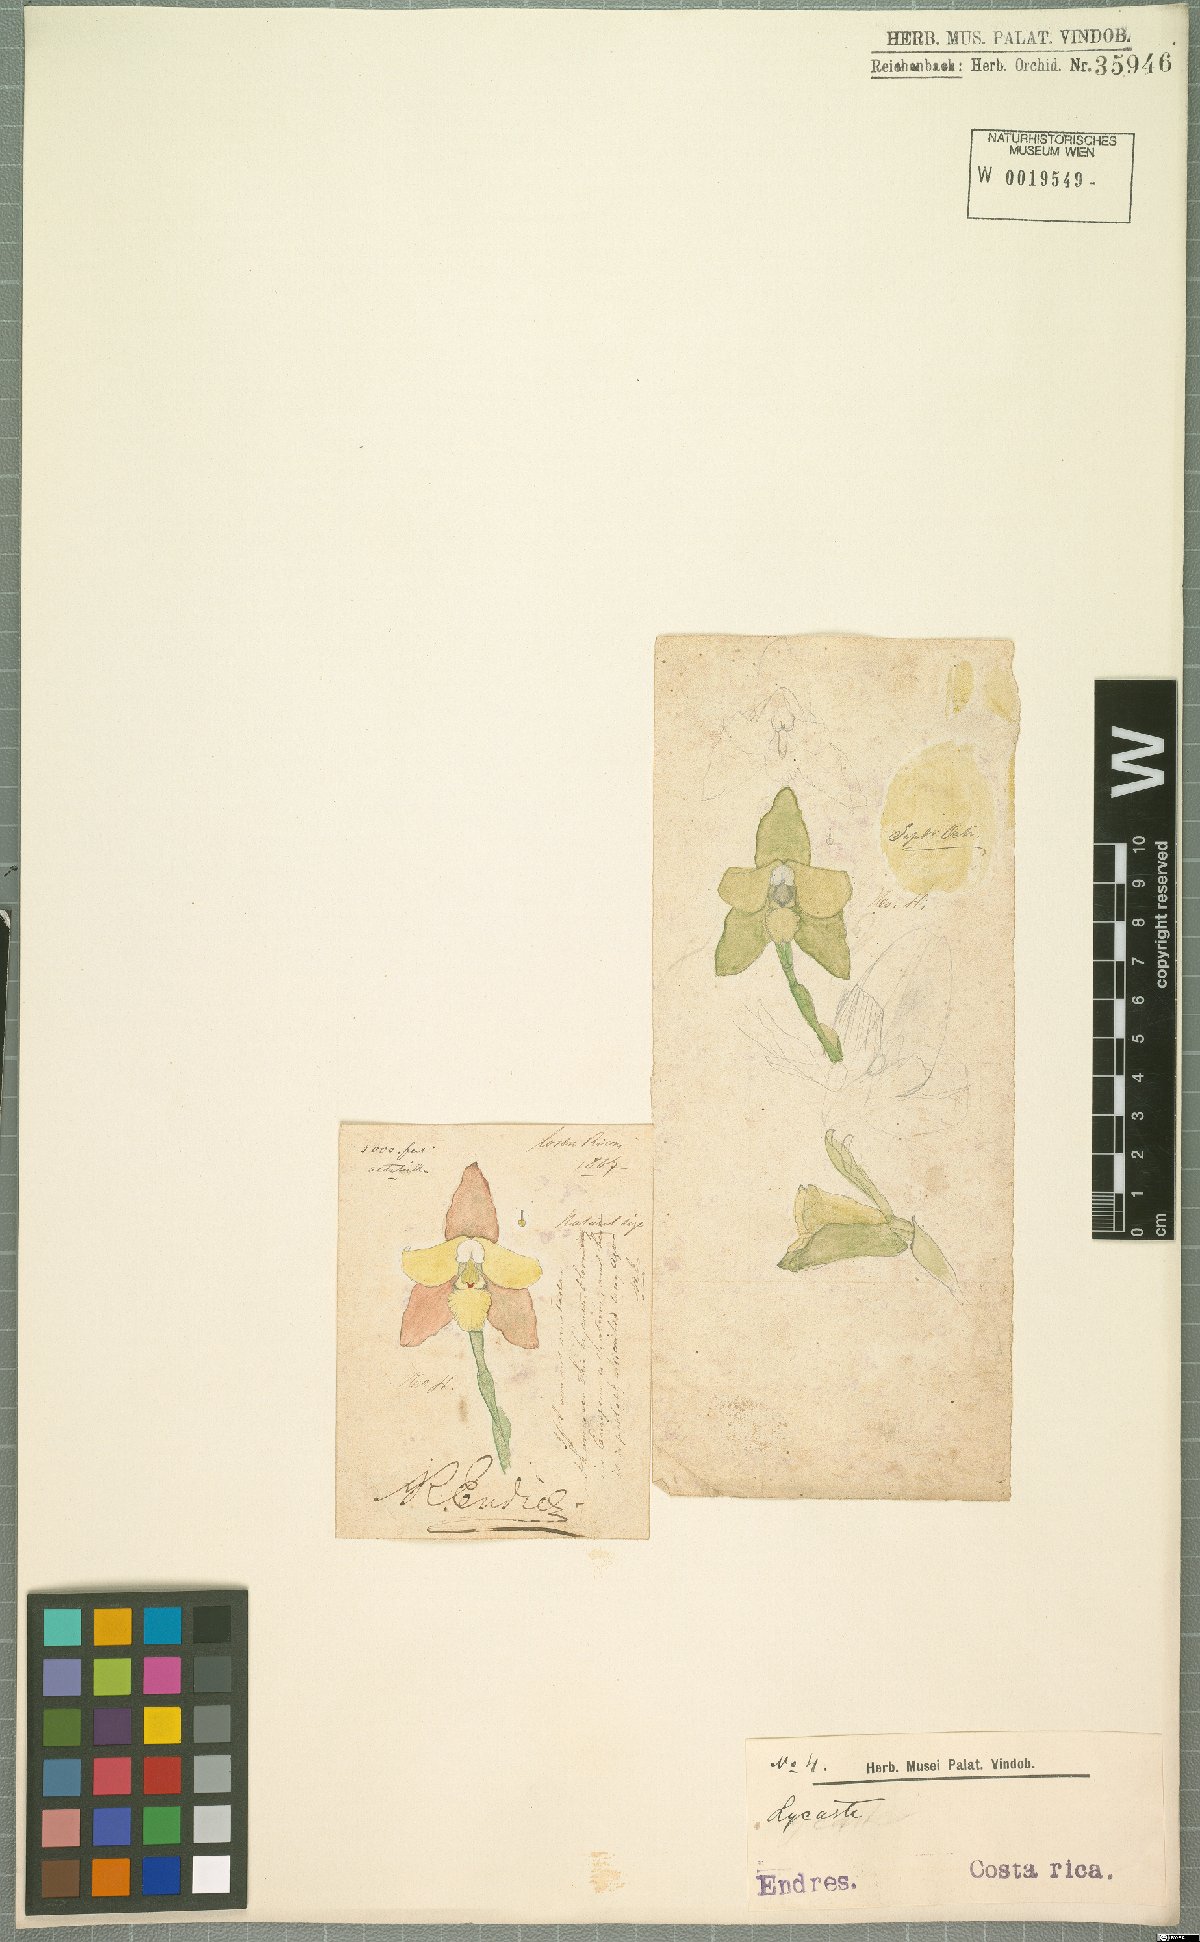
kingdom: Plantae
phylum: Tracheophyta
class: Liliopsida
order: Asparagales
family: Orchidaceae
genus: Lycaste
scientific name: Lycaste
